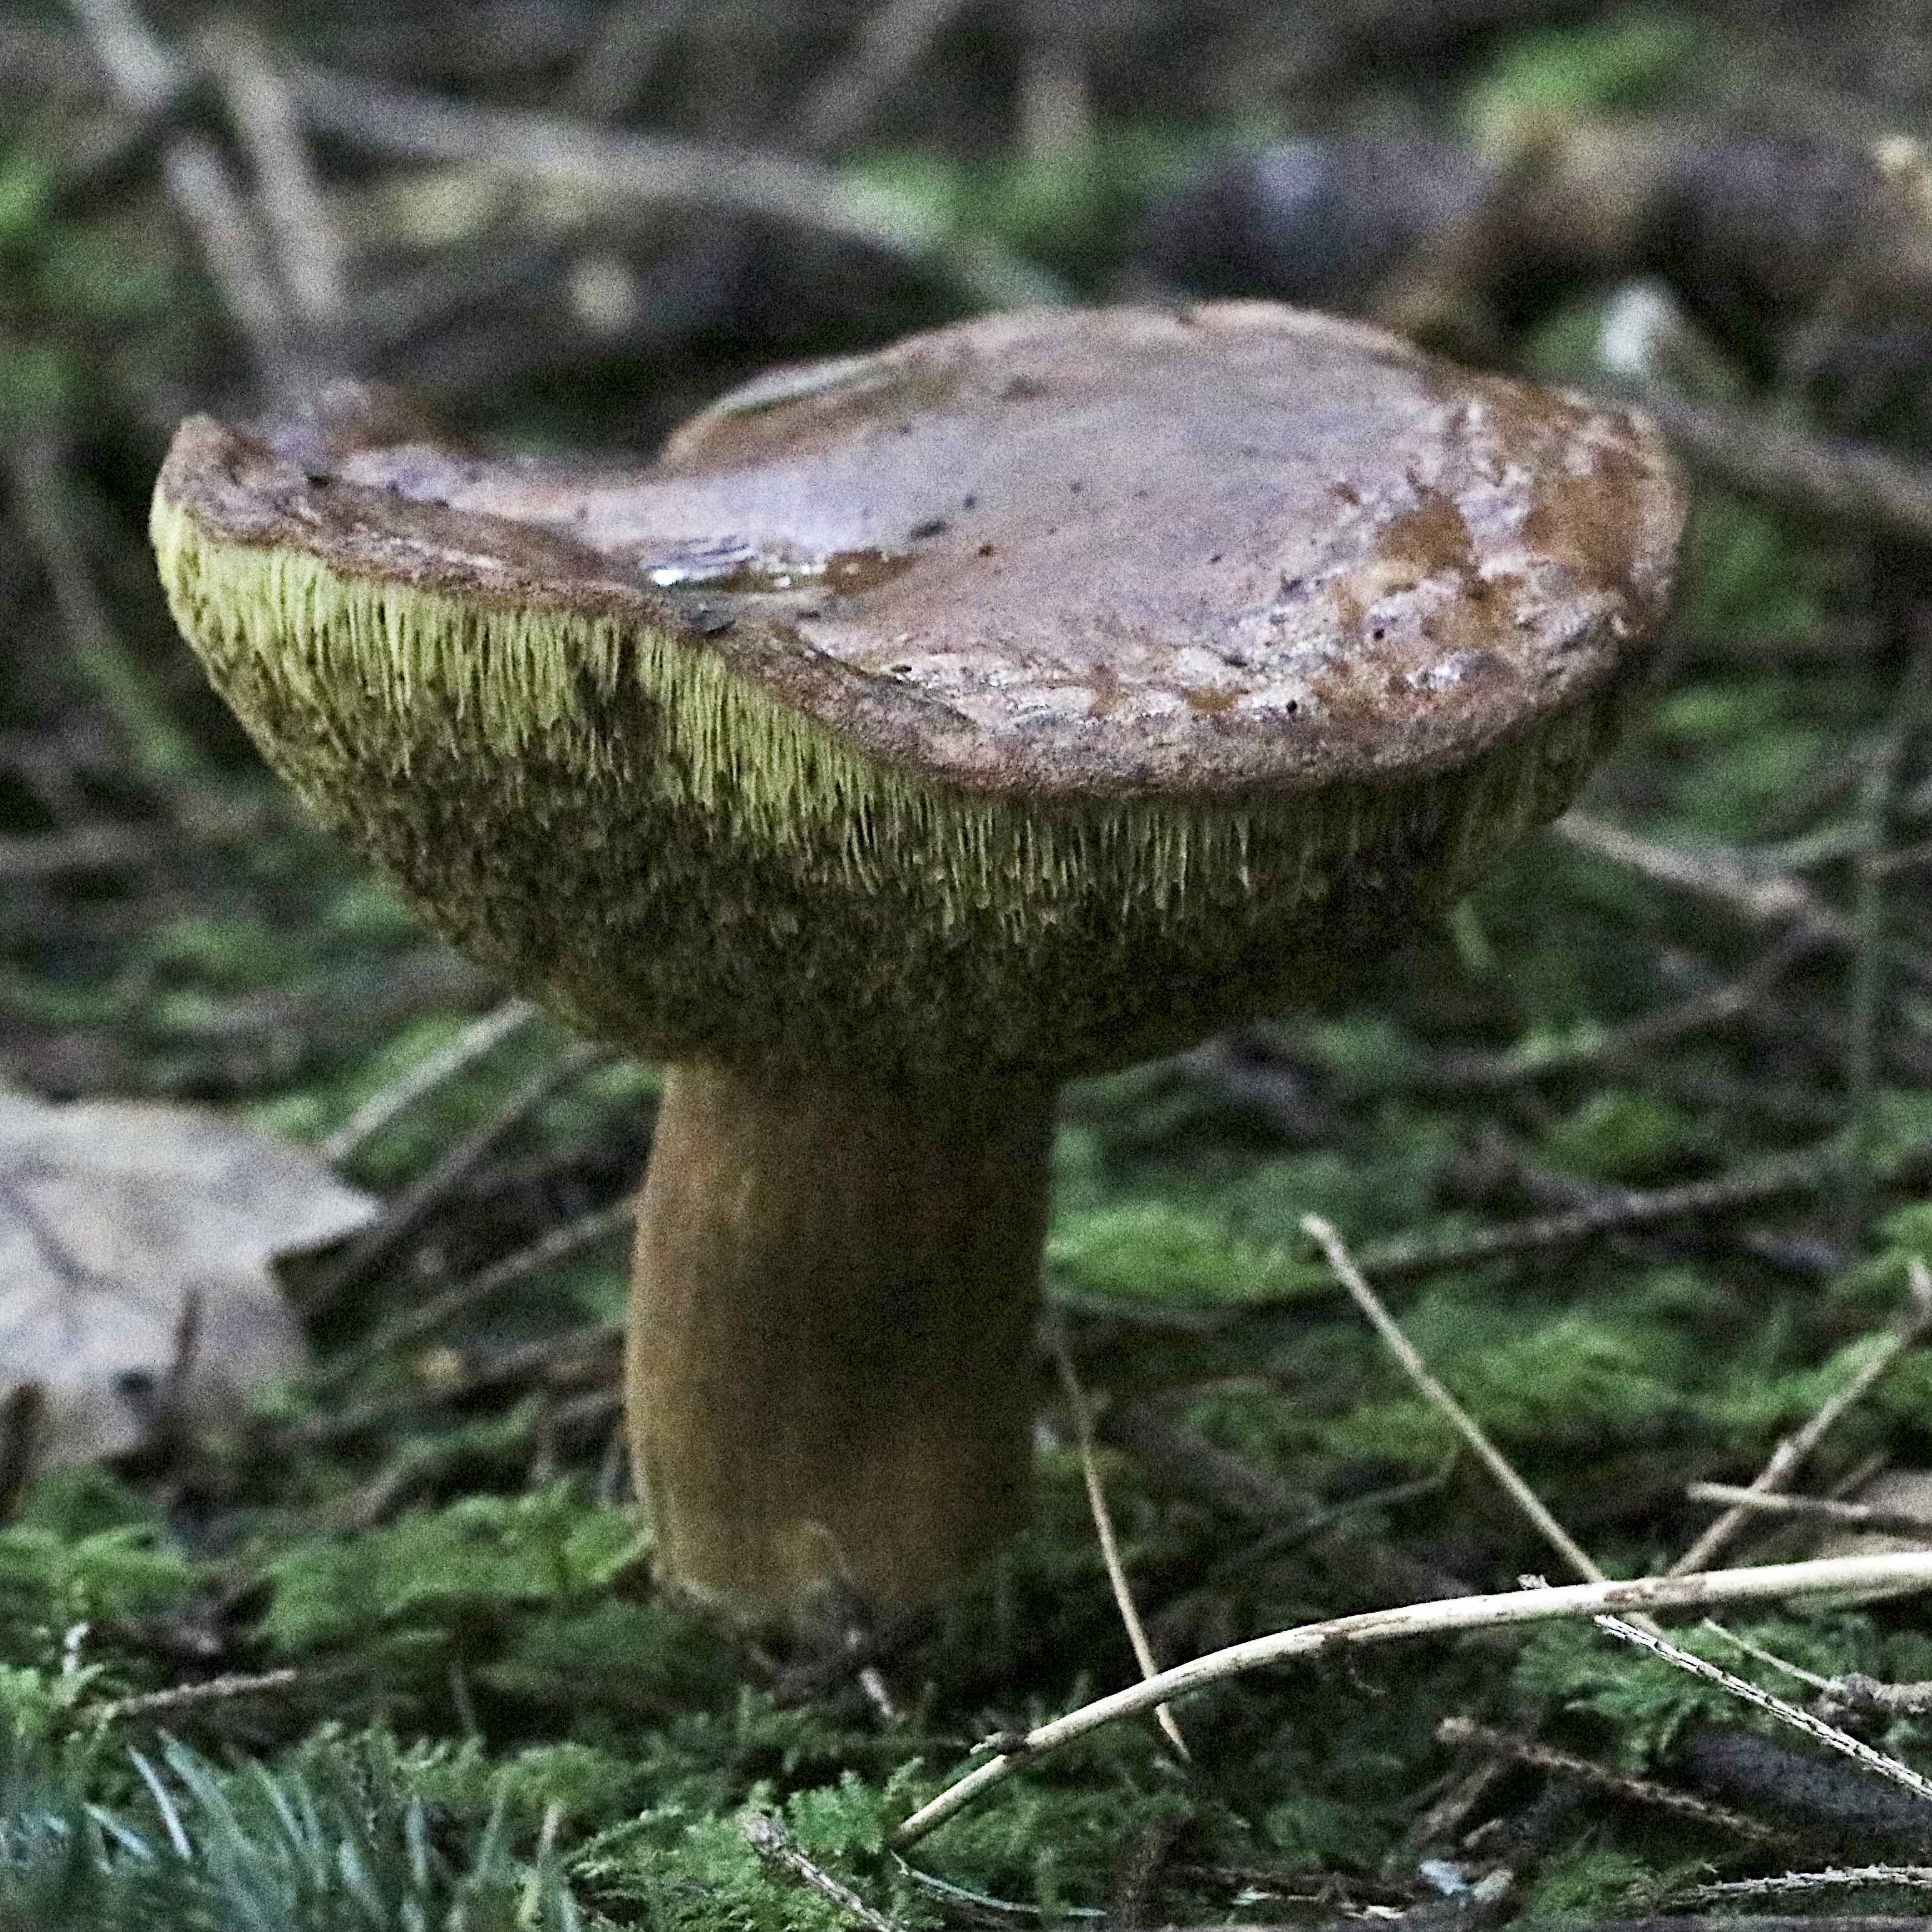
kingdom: Fungi
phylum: Basidiomycota
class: Agaricomycetes
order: Boletales
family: Boletaceae
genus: Imleria
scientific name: Imleria badia
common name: brunstokket rørhat
